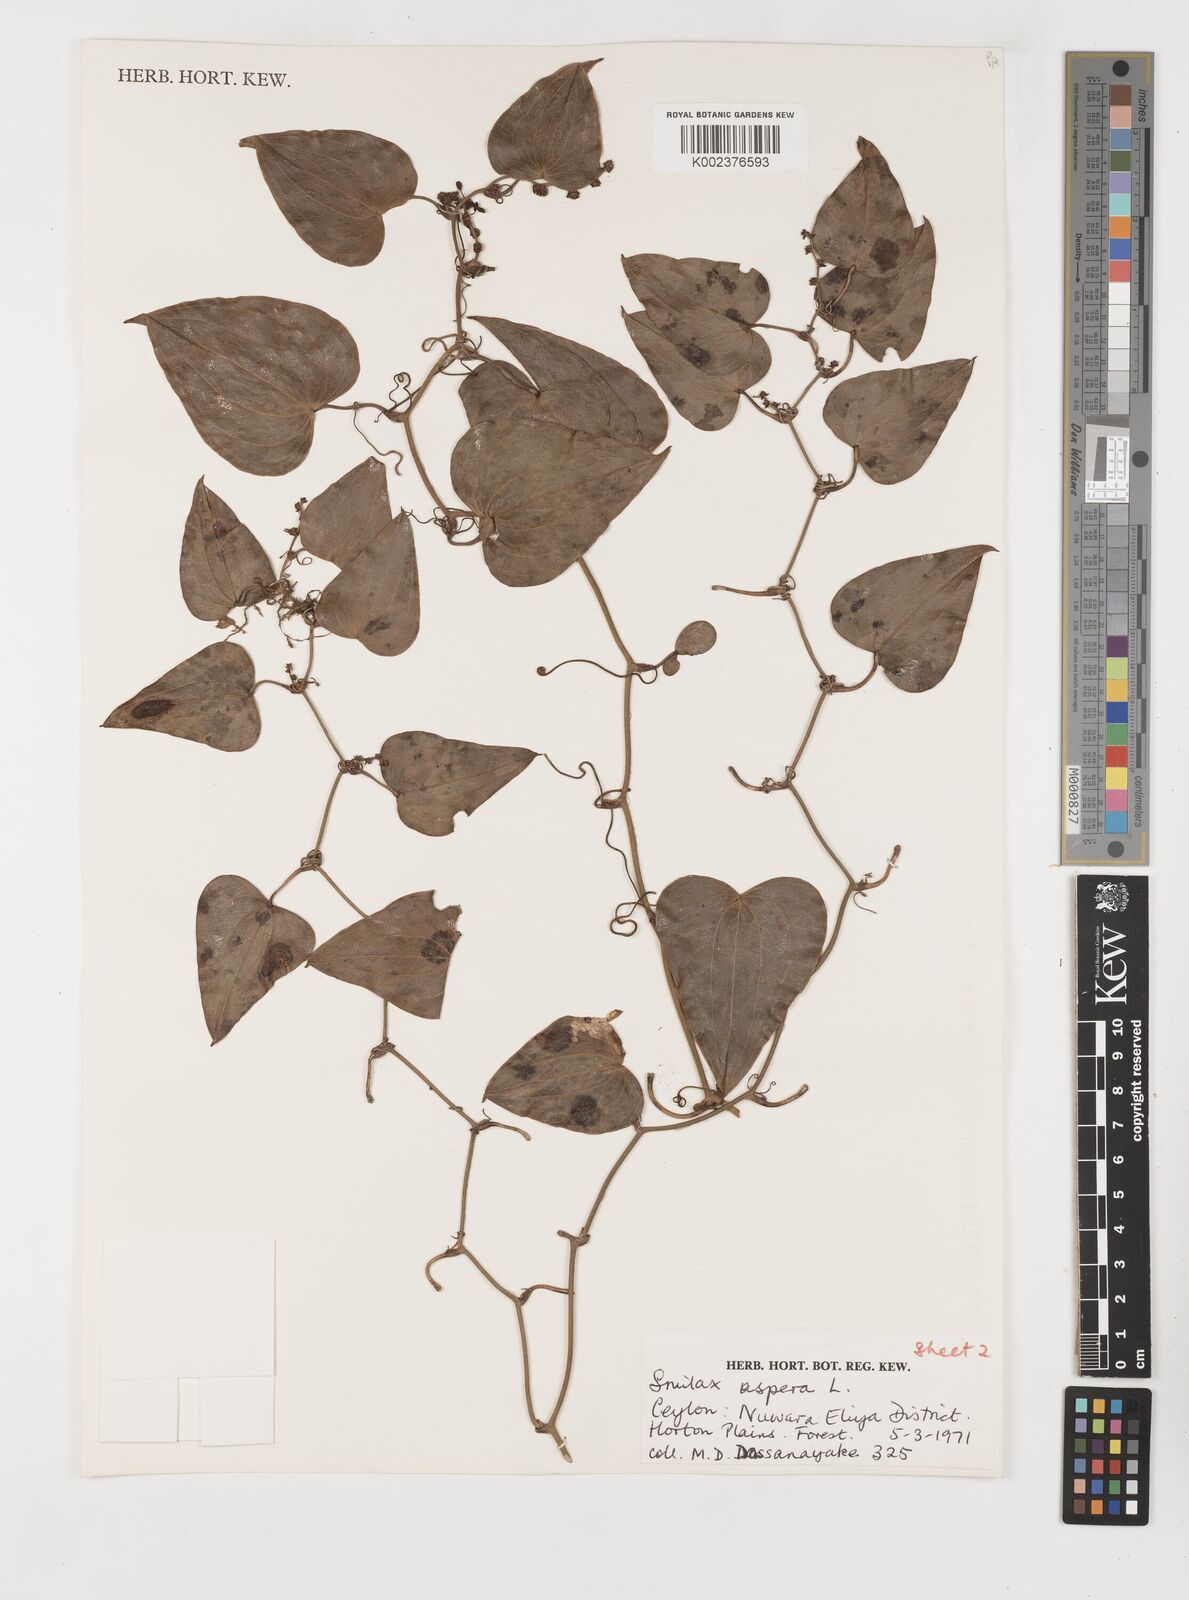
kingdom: Plantae
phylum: Tracheophyta
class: Liliopsida
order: Liliales
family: Smilacaceae
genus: Smilax
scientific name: Smilax aspera
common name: Common smilax
